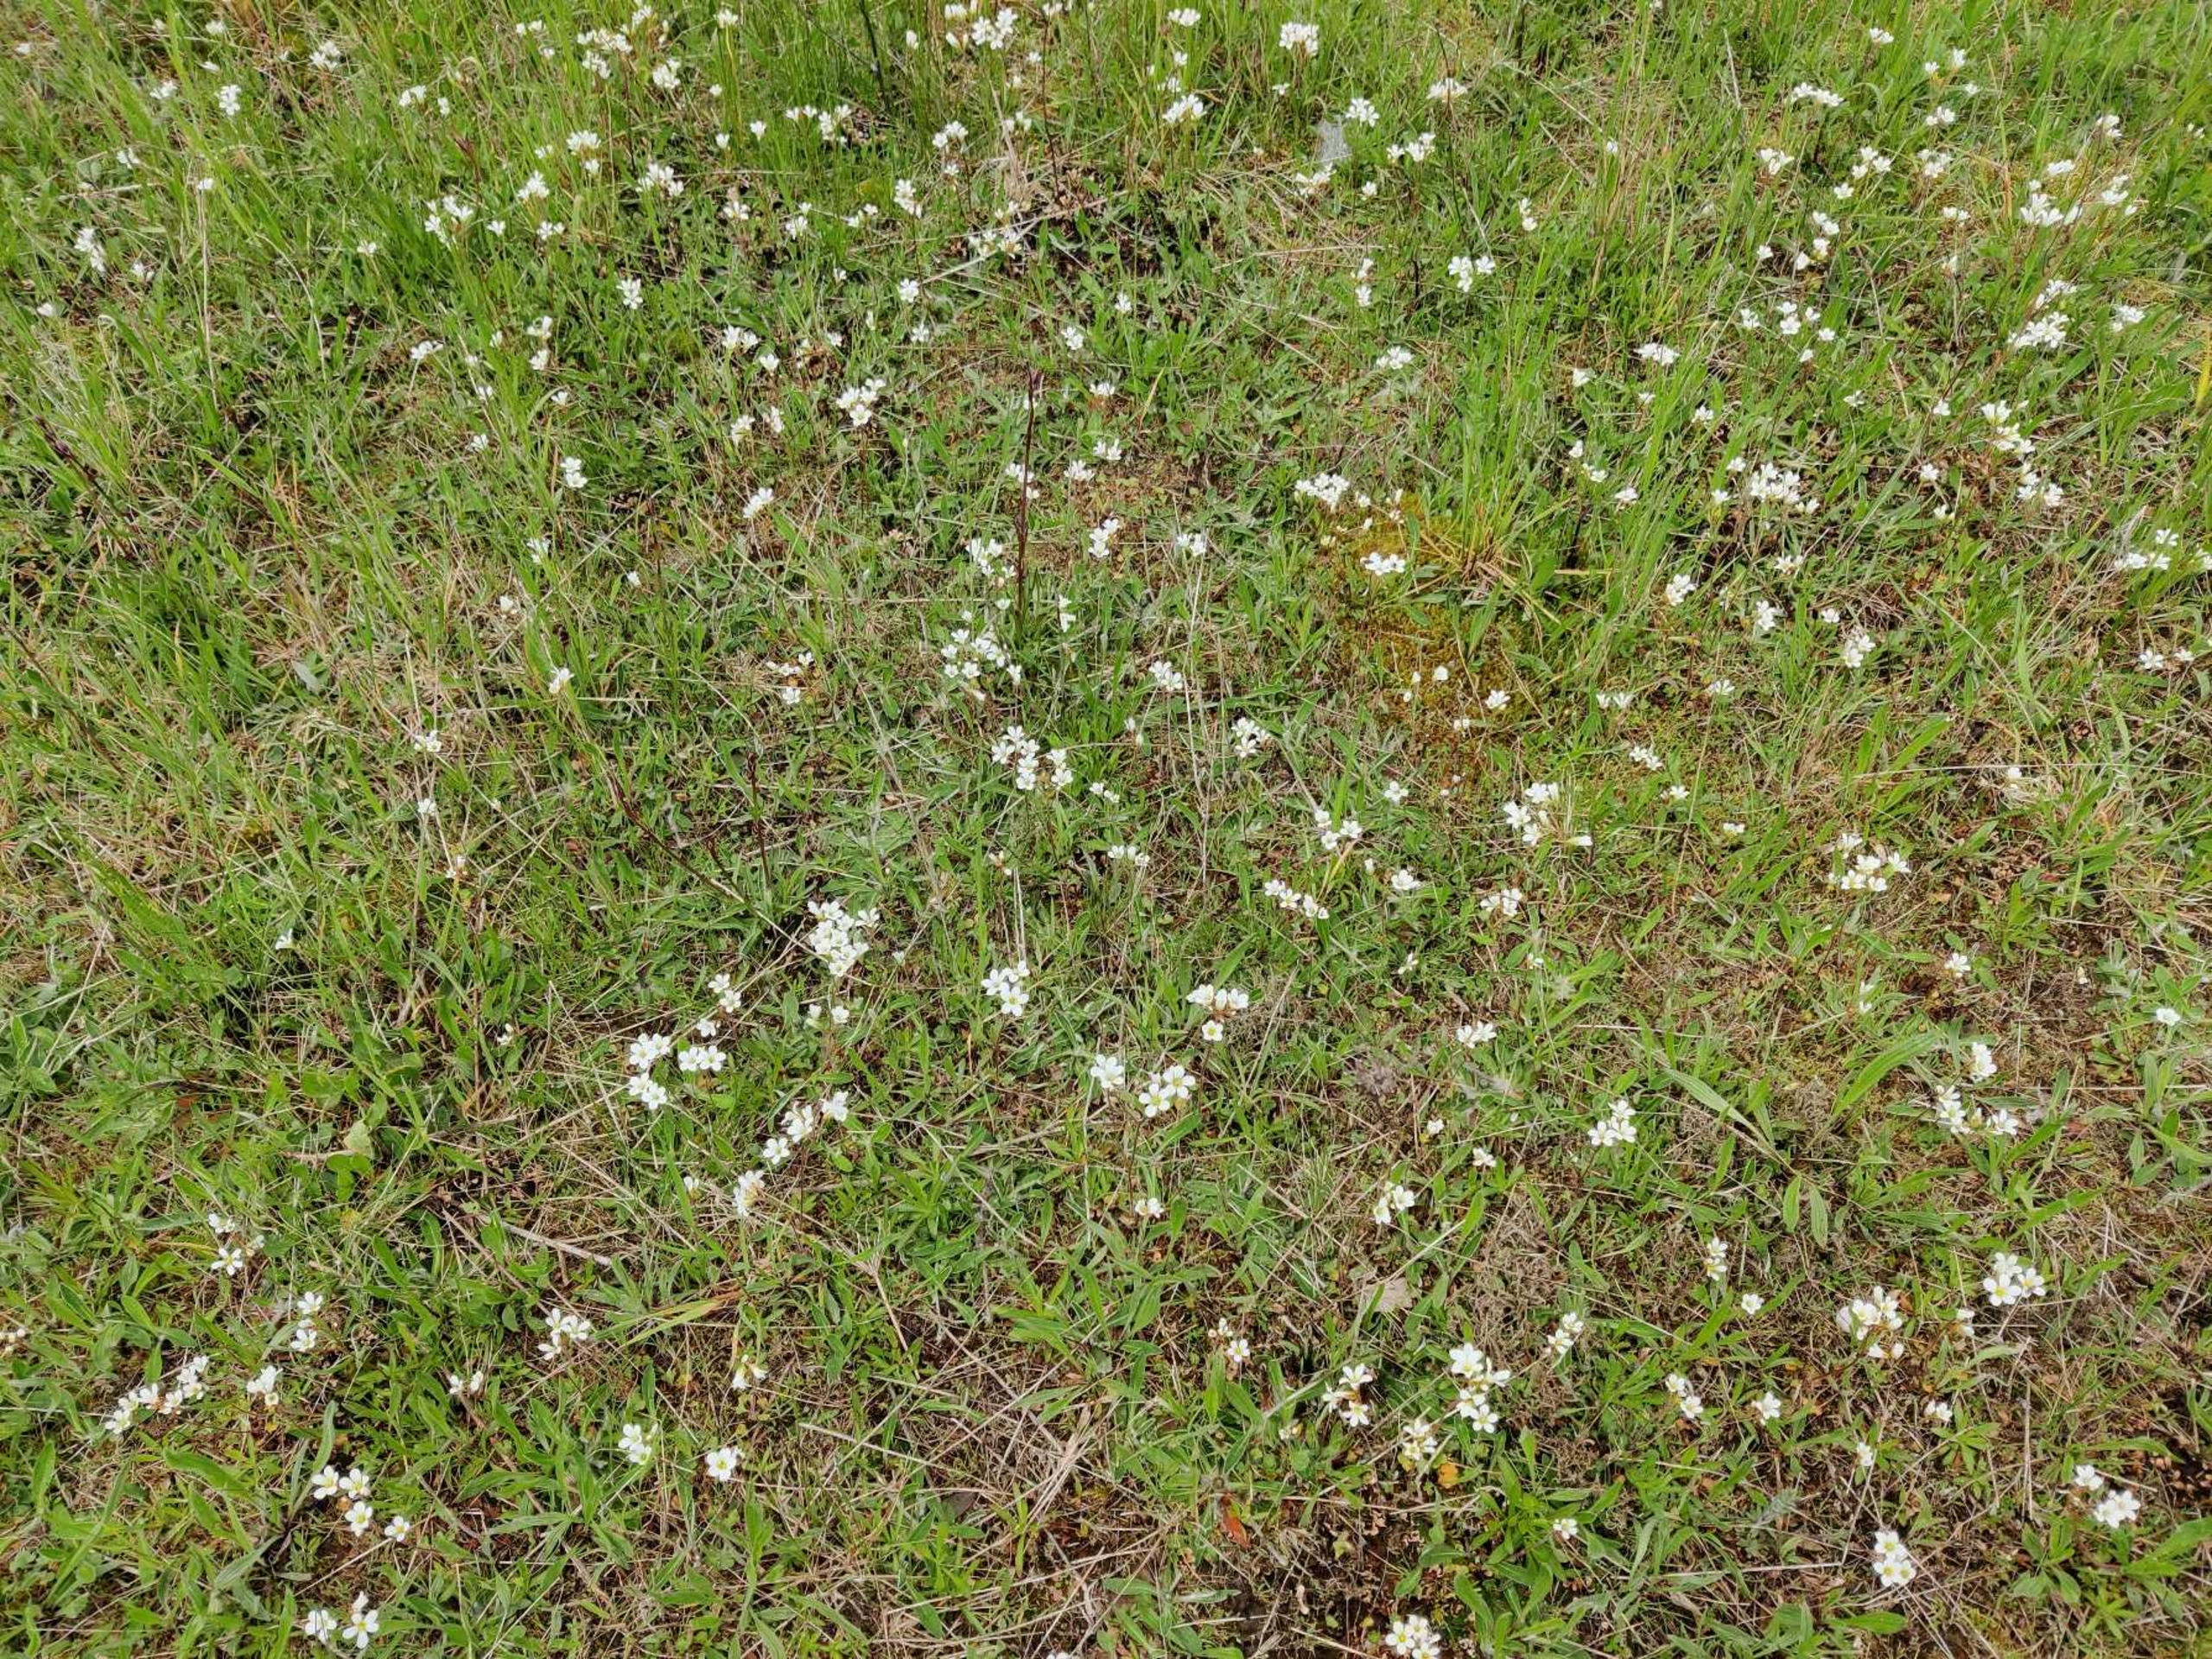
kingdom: Plantae
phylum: Tracheophyta
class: Magnoliopsida
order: Saxifragales
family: Saxifragaceae
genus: Saxifraga
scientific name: Saxifraga granulata
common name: Kornet stenbræk
